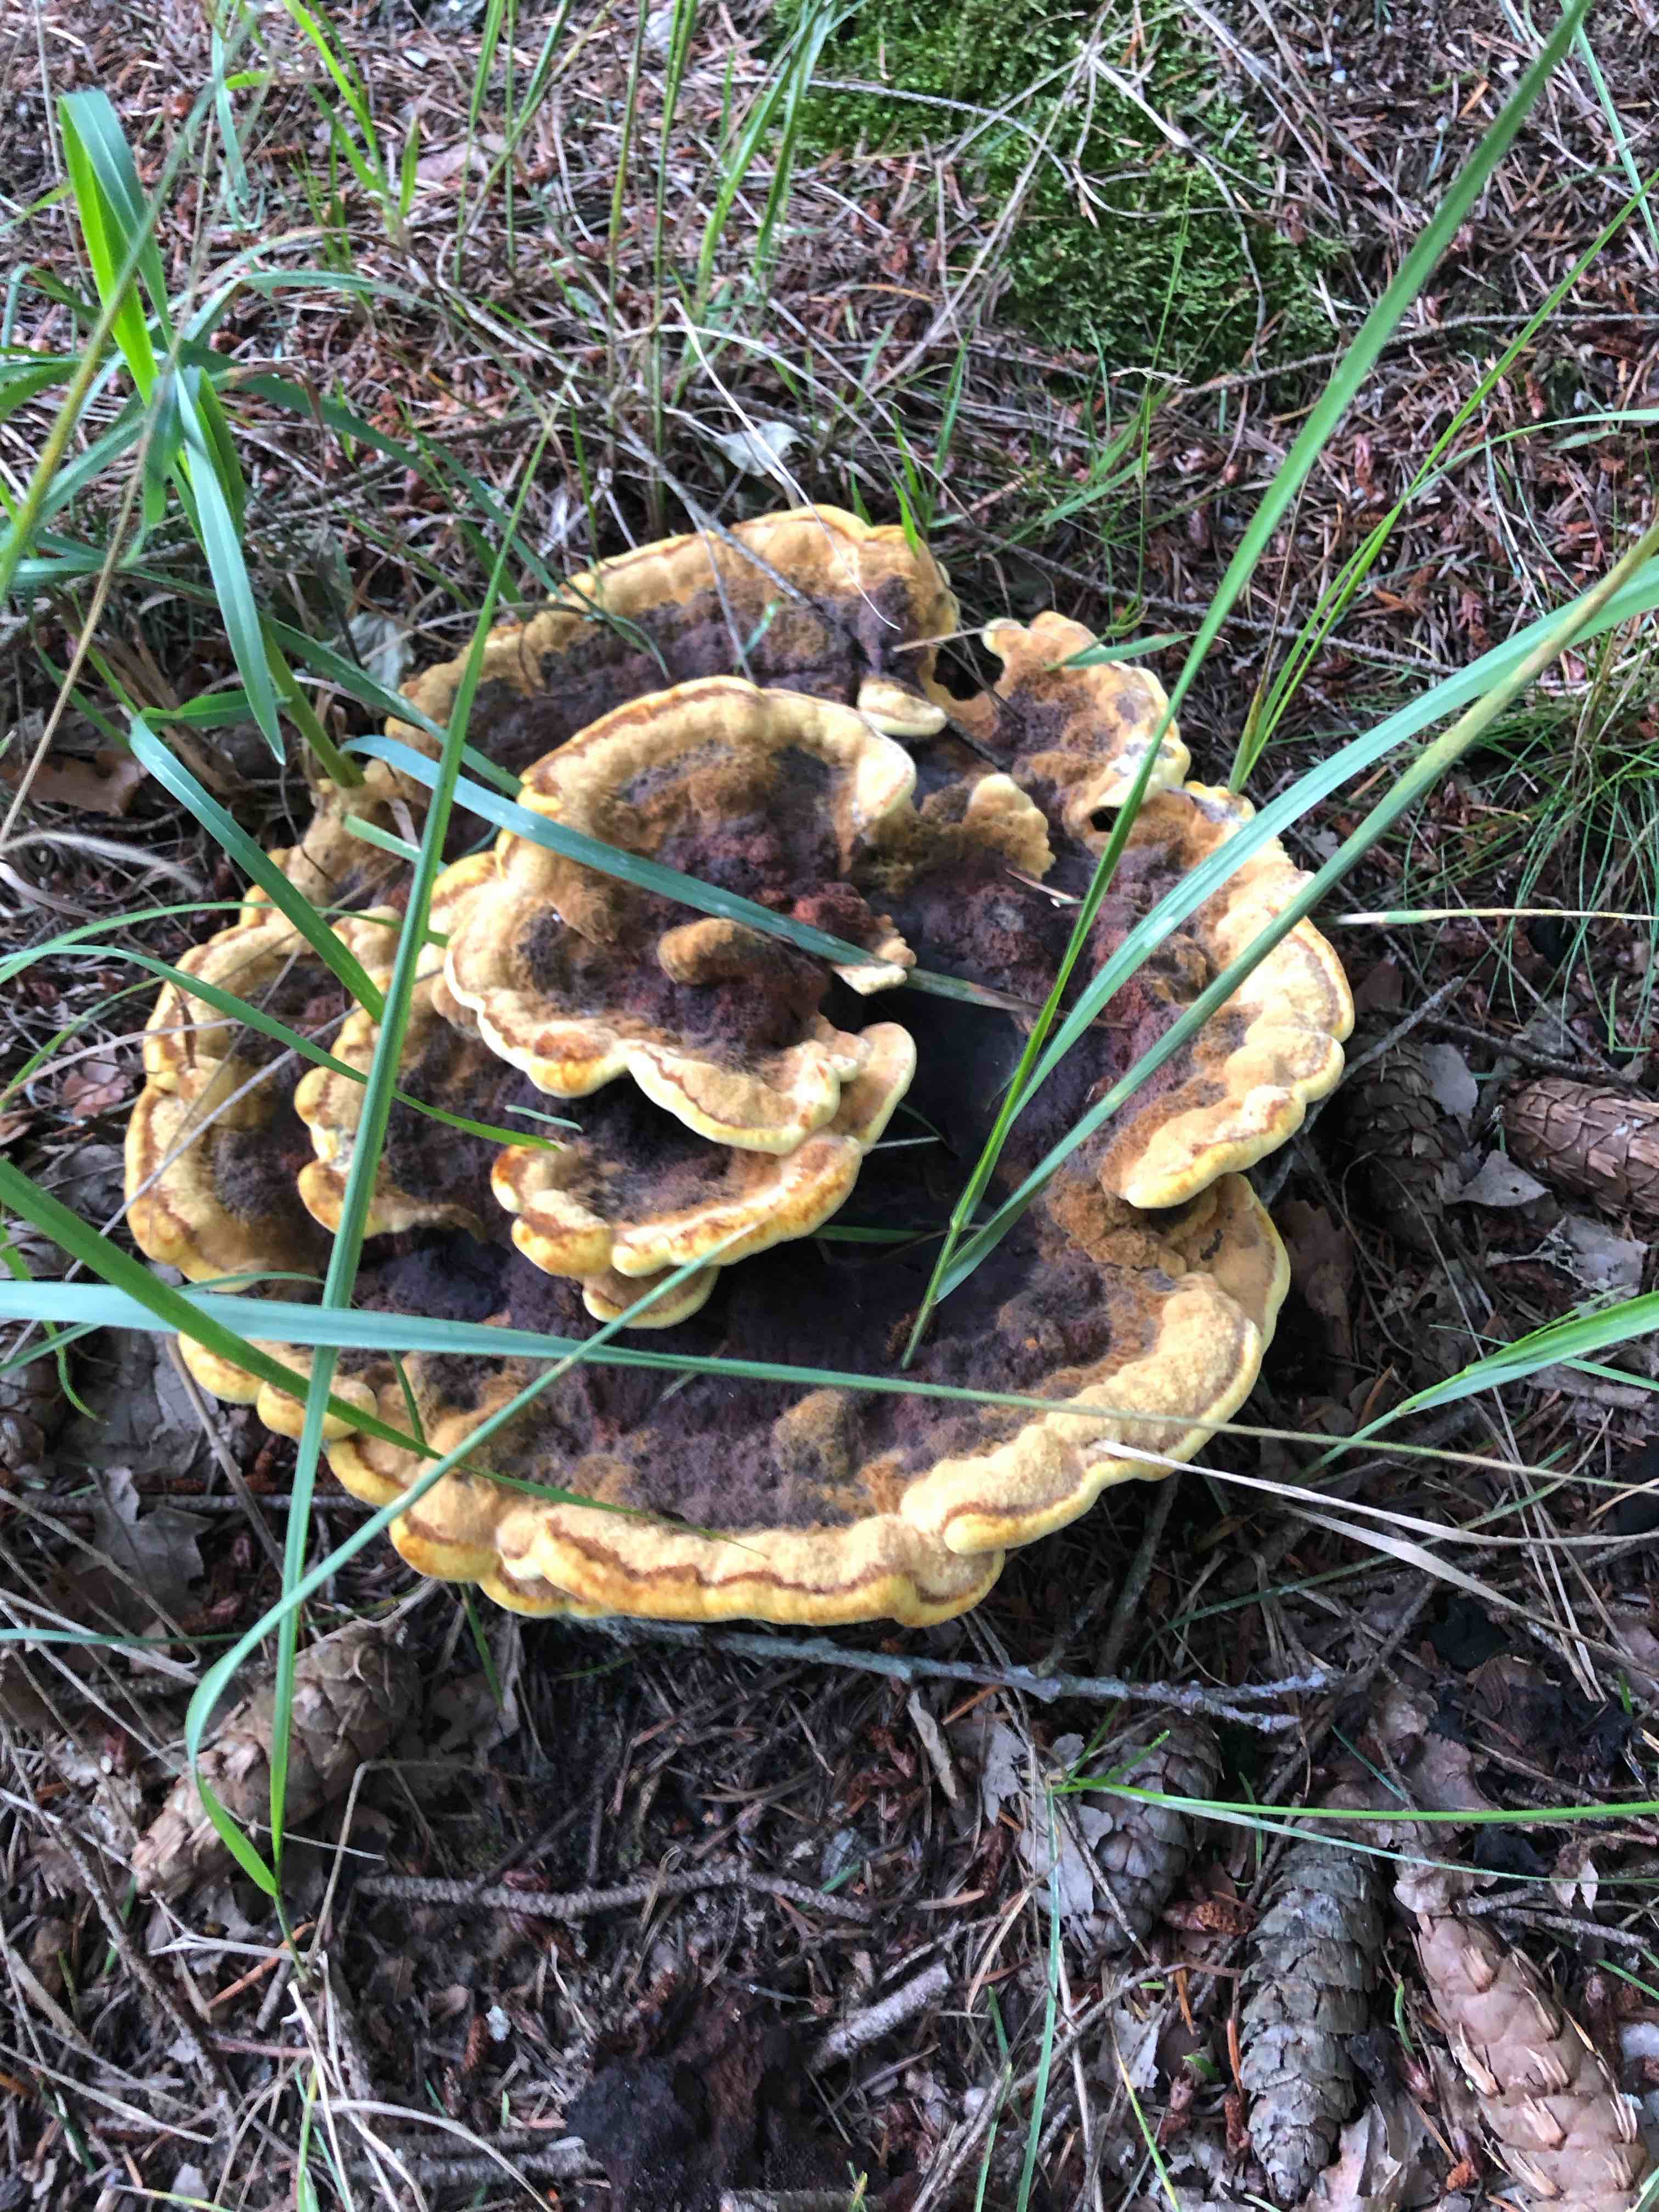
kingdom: Fungi
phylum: Basidiomycota
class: Agaricomycetes
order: Polyporales
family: Laetiporaceae
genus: Phaeolus
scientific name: Phaeolus schweinitzii
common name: brunporesvamp
